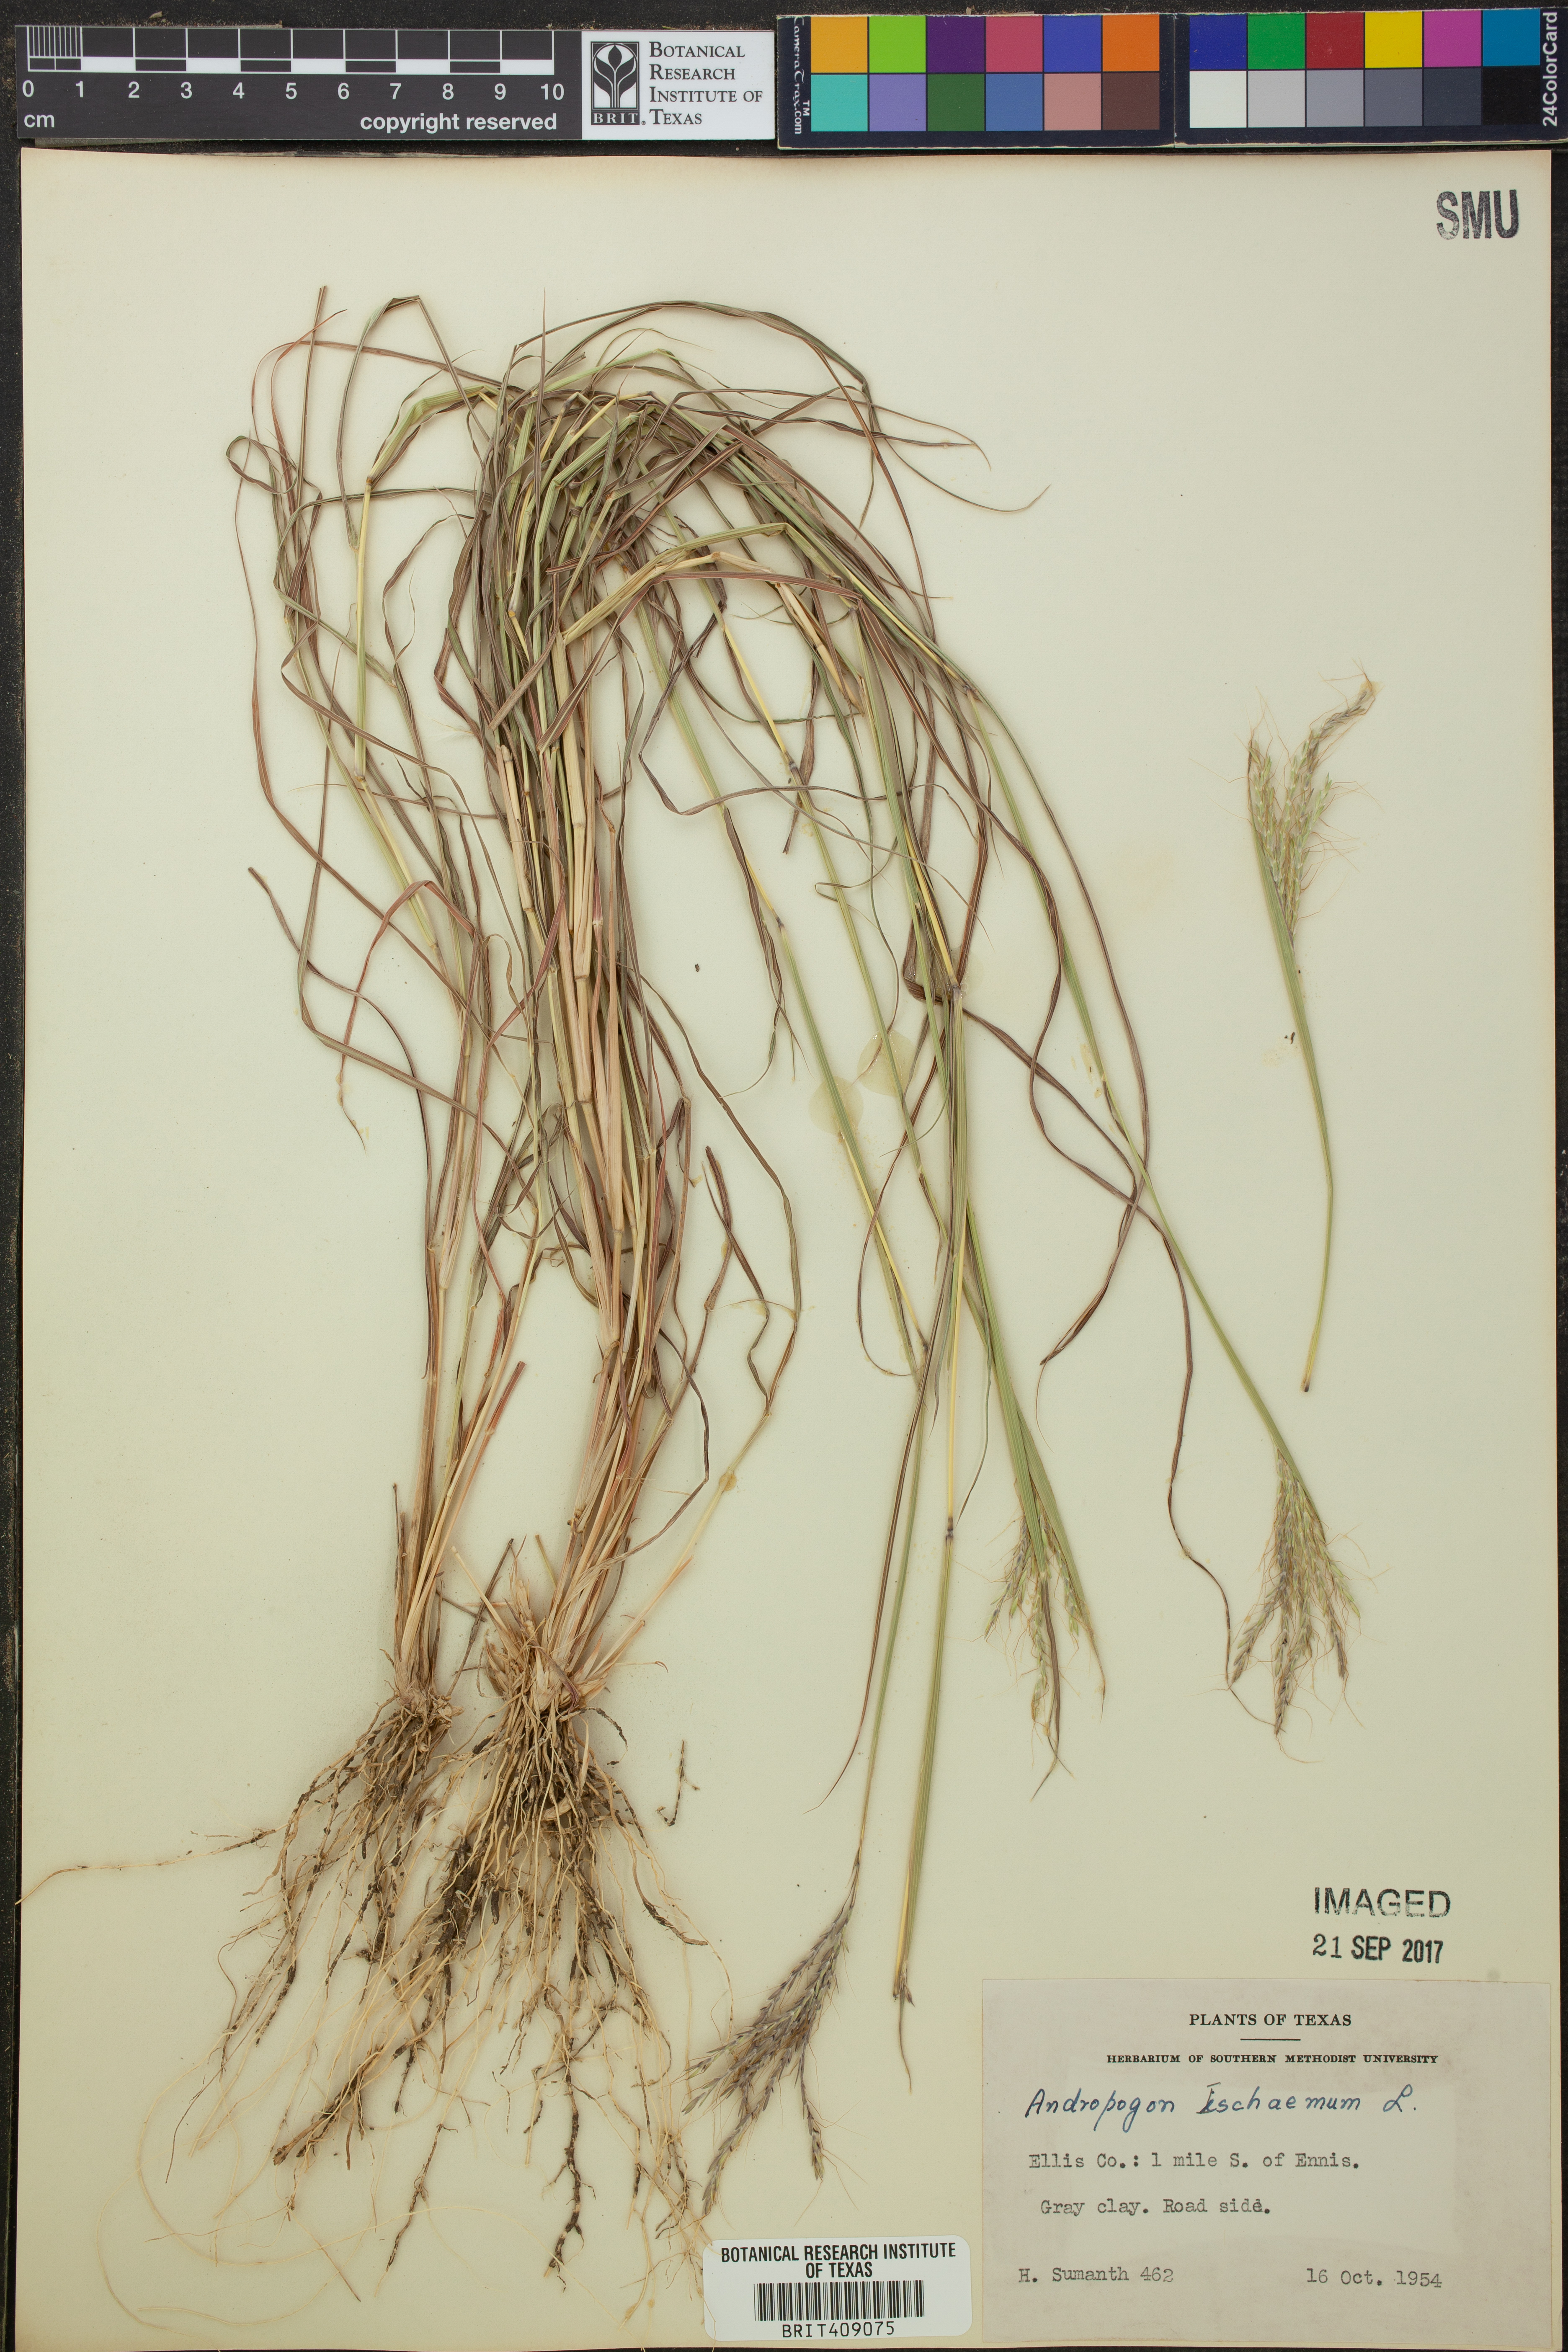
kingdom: Plantae
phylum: Tracheophyta
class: Liliopsida
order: Poales
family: Poaceae
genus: Andropogon
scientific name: Andropogon ischaemum
